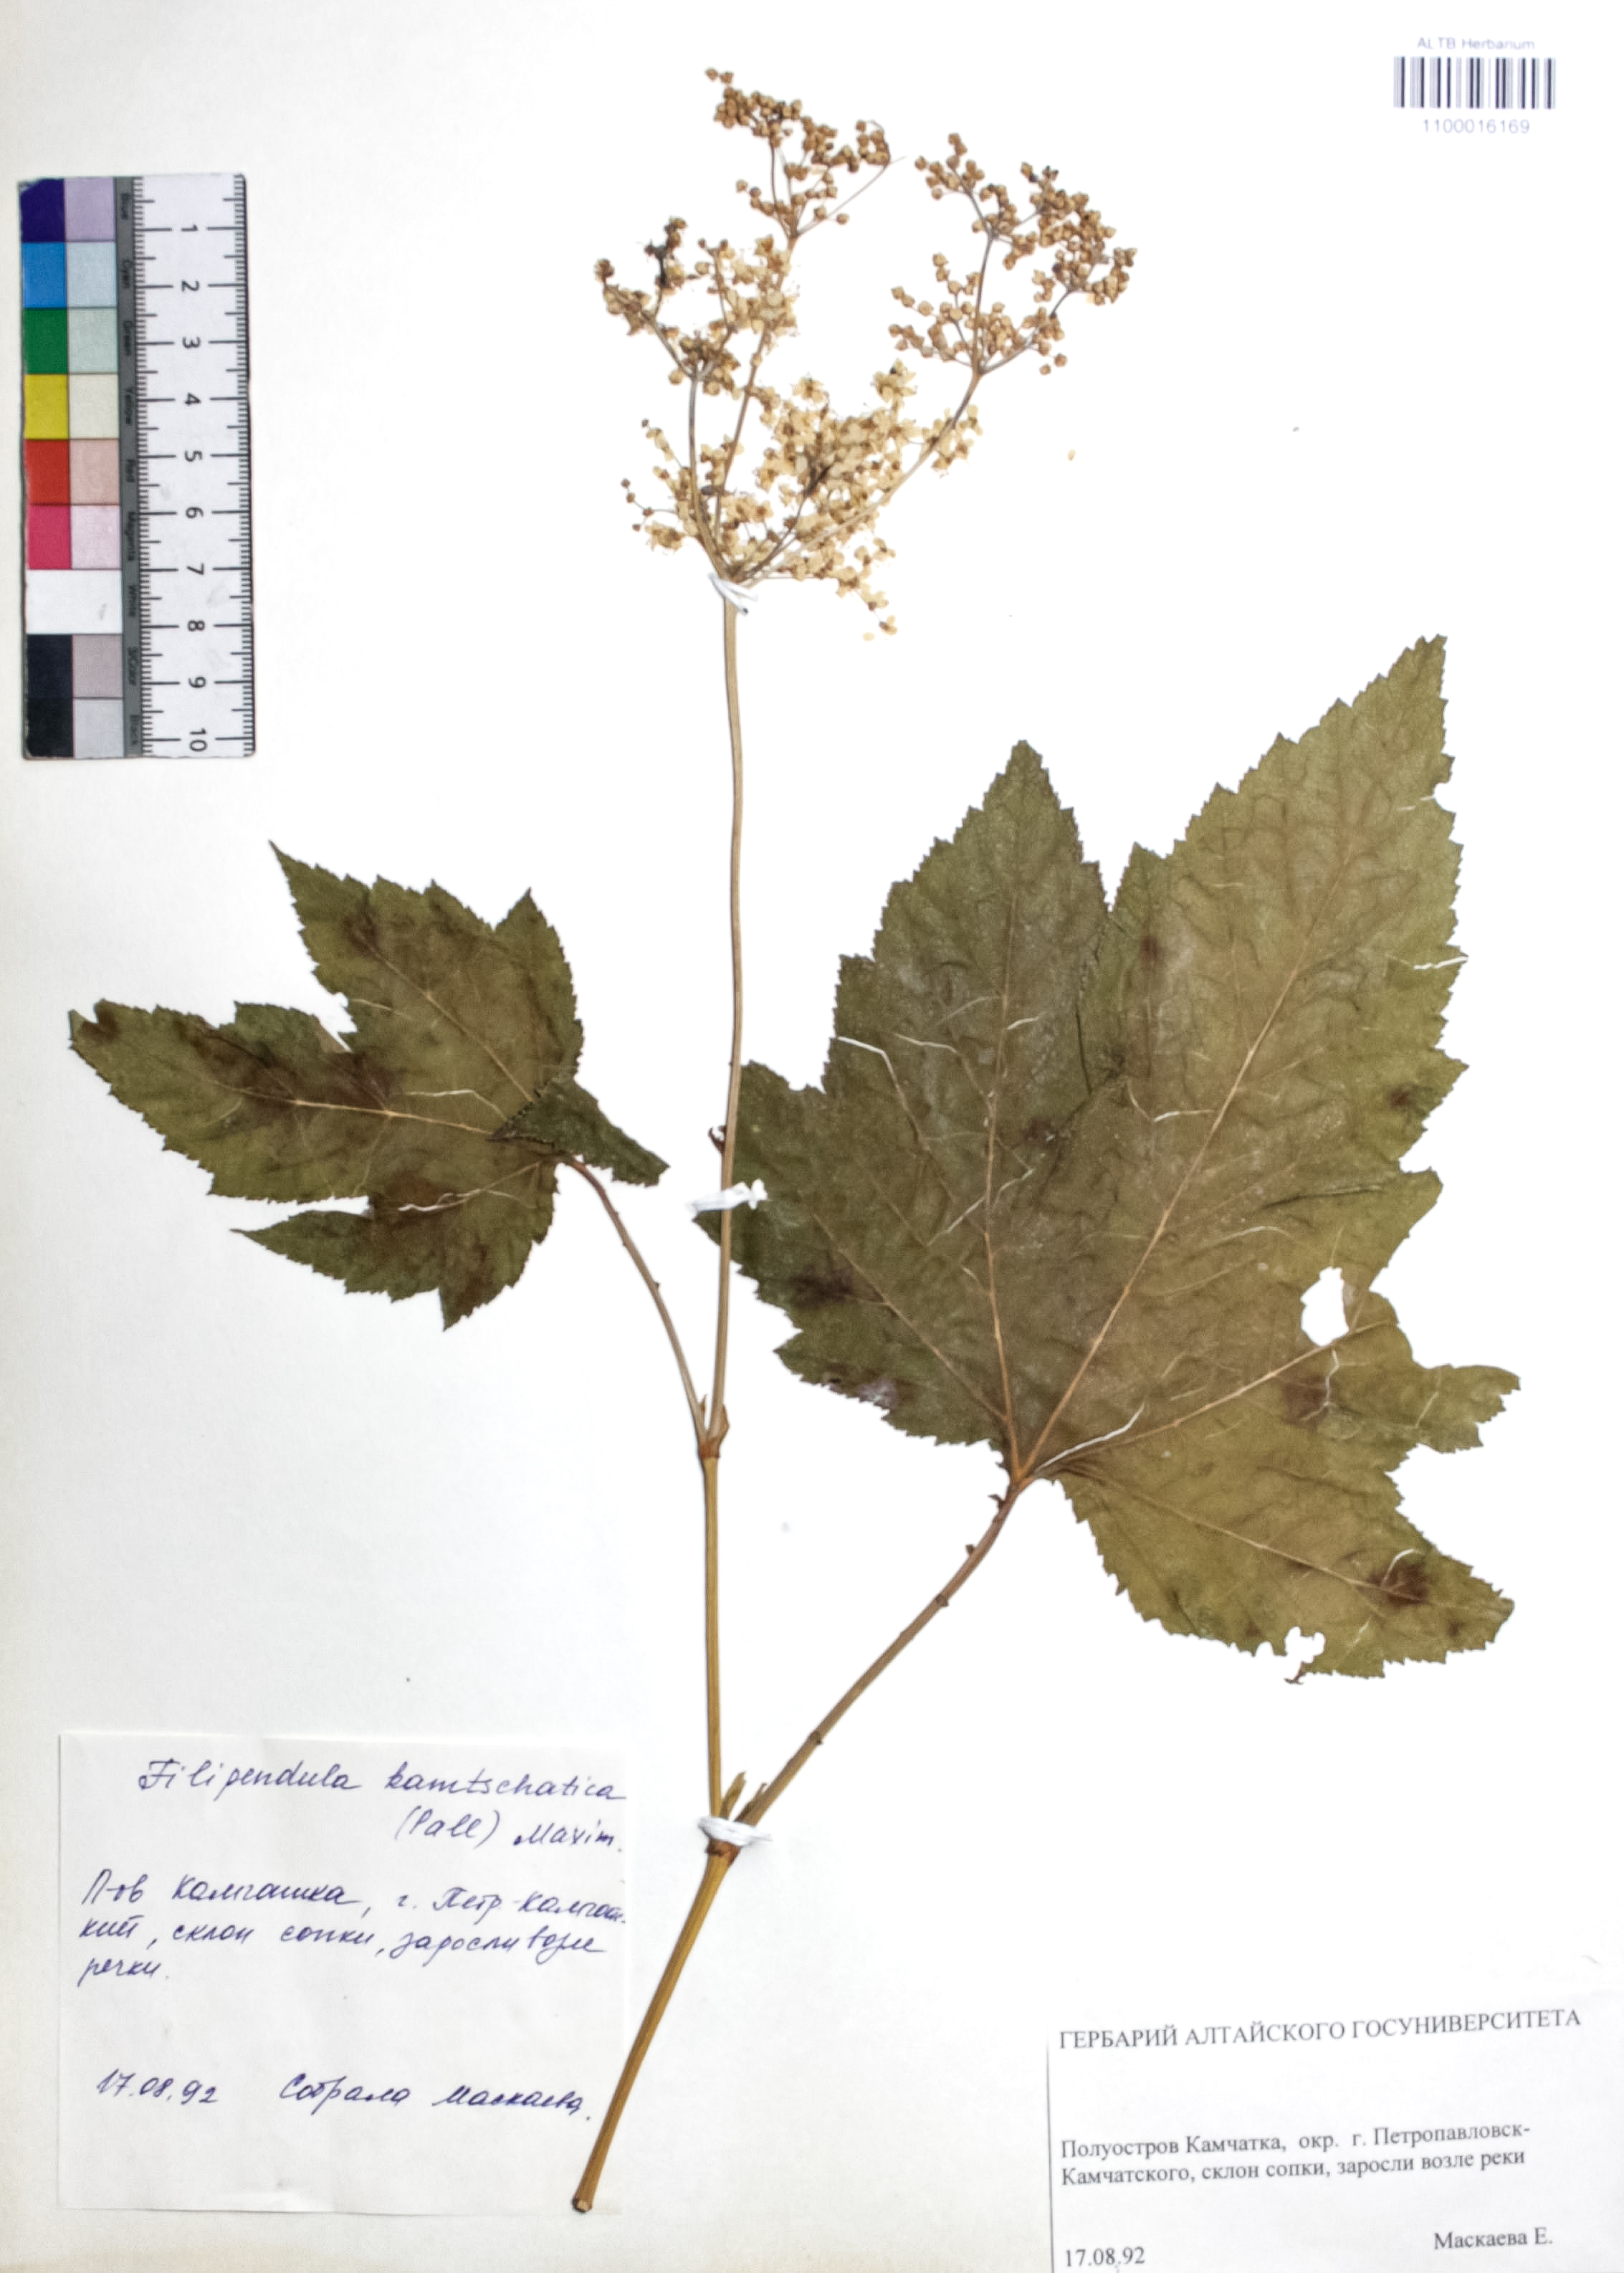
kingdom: Plantae
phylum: Tracheophyta
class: Magnoliopsida
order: Rosales
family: Rosaceae
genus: Filipendula
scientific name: Filipendula camtschatica
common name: Giant meadowsweet
